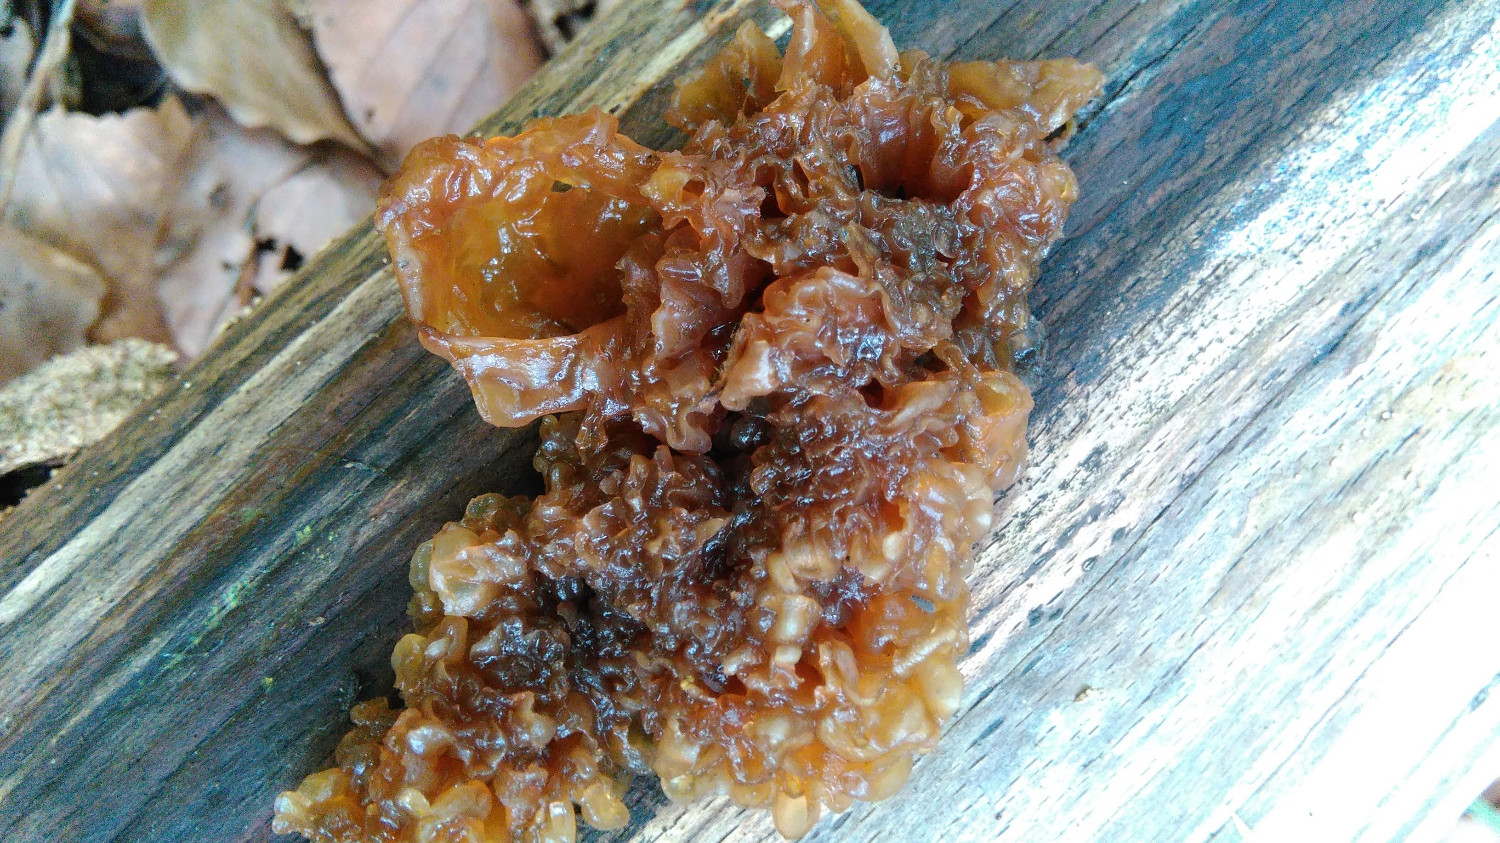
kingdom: Fungi
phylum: Basidiomycota
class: Tremellomycetes
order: Tremellales
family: Tremellaceae
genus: Phaeotremella
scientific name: Phaeotremella frondosa
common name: kæmpe-bævresvamp
